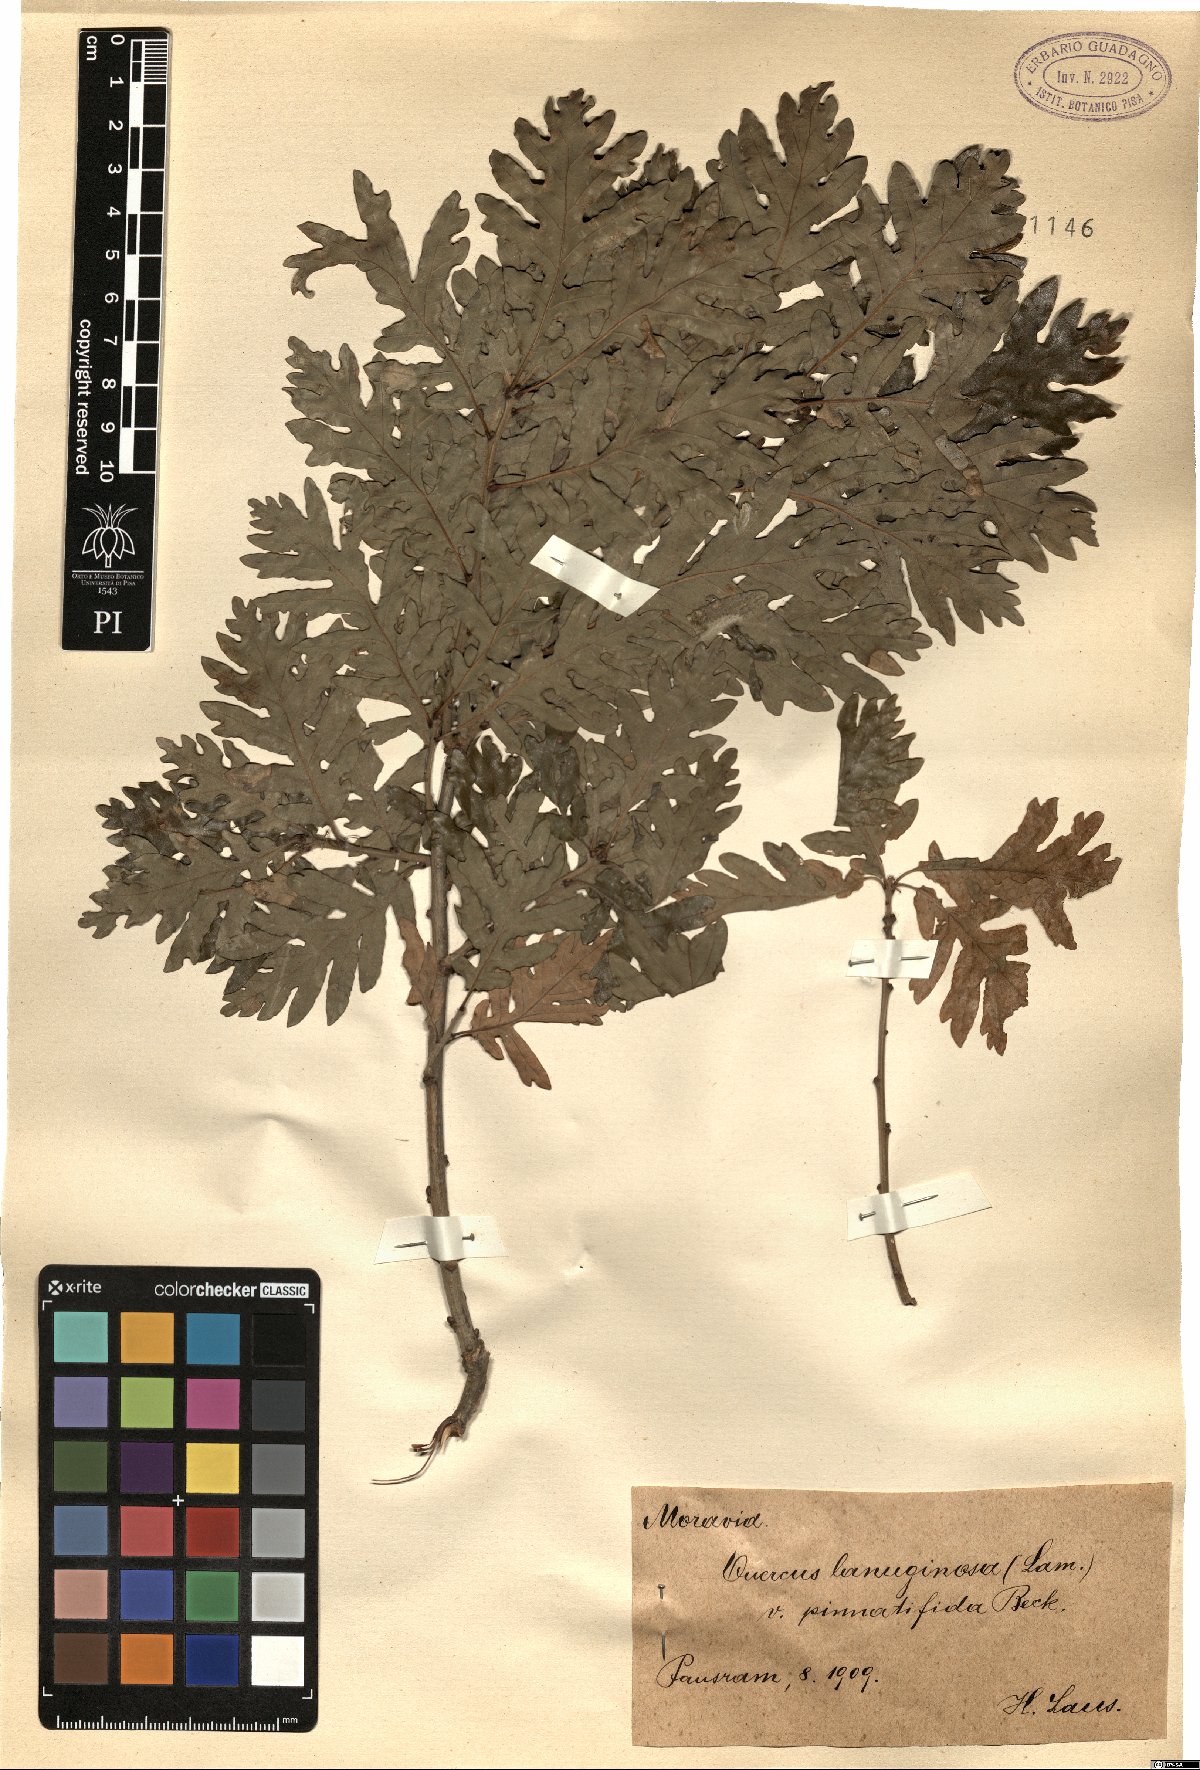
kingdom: Plantae
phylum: Tracheophyta
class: Magnoliopsida
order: Fagales
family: Fagaceae
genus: Quercus
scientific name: Quercus
